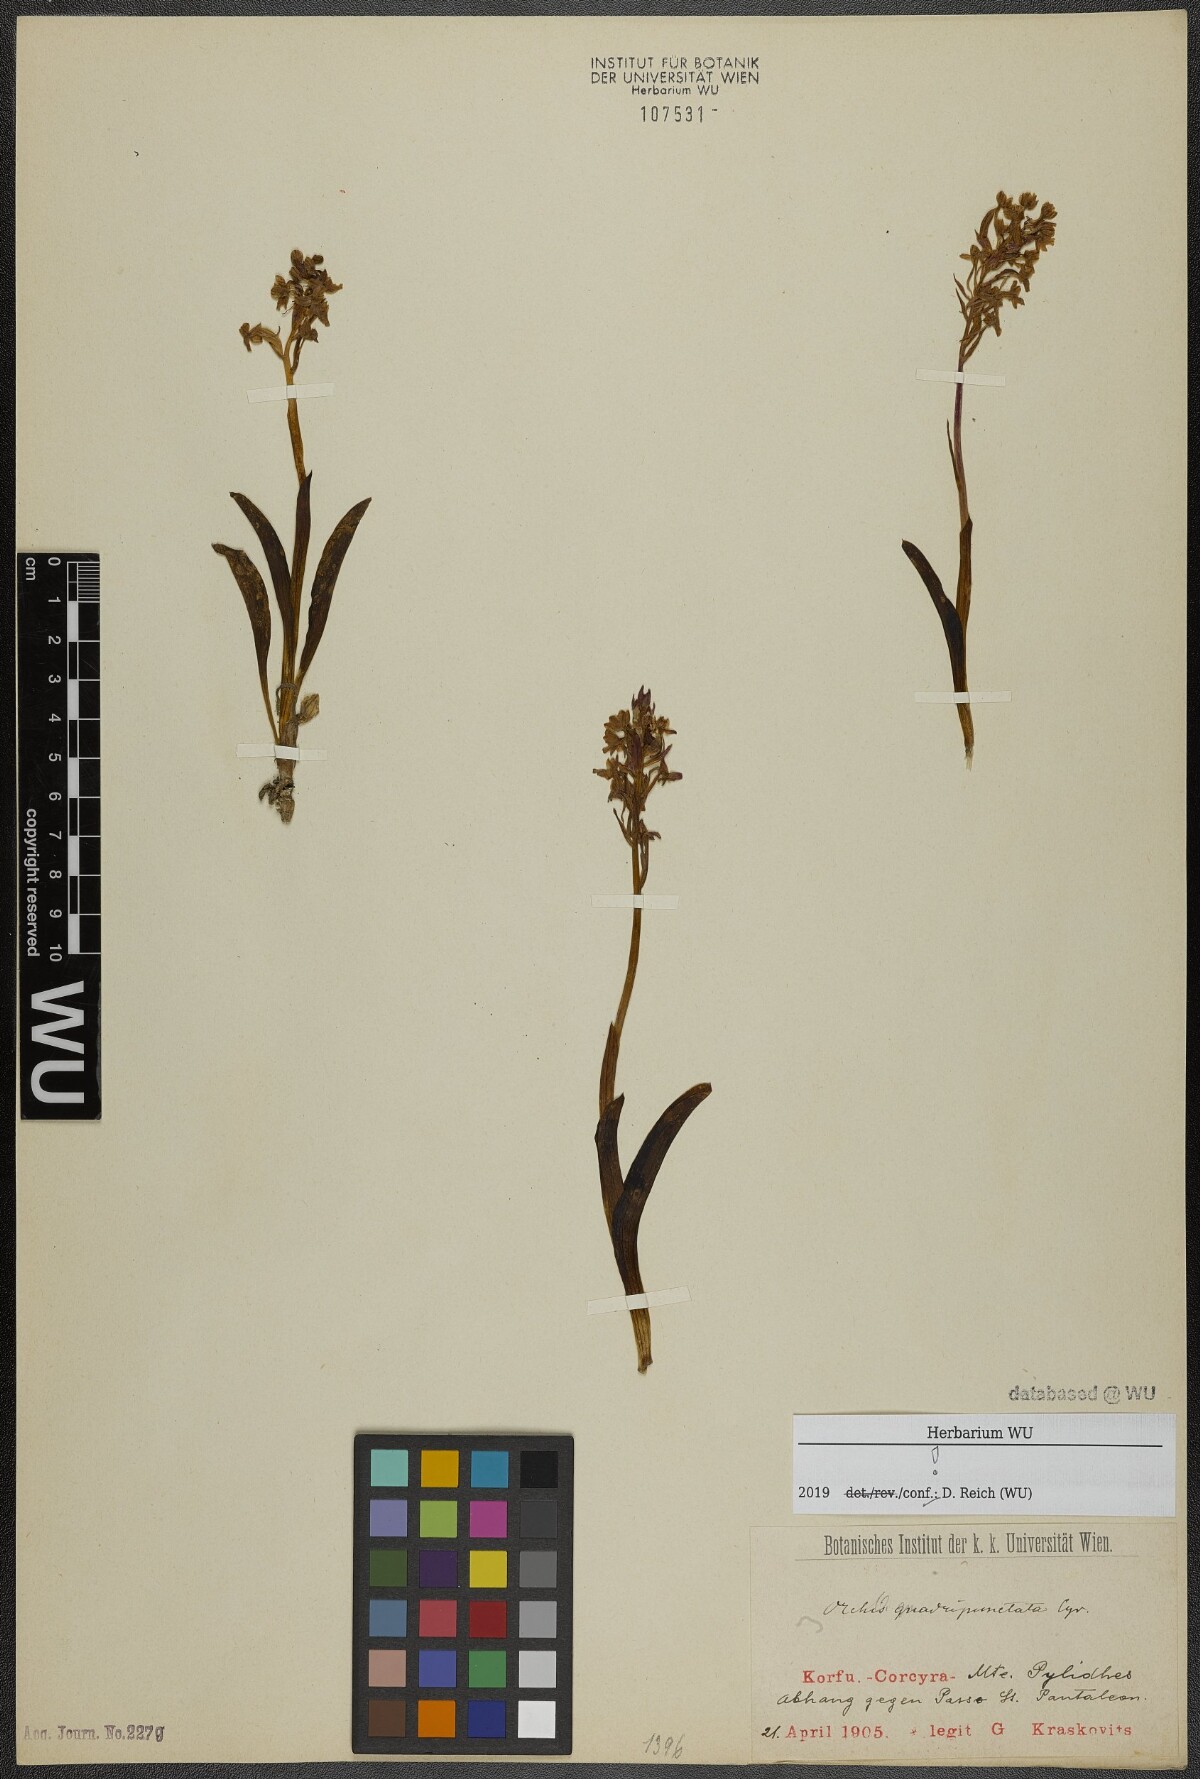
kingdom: Plantae
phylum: Tracheophyta
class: Liliopsida
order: Asparagales
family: Orchidaceae
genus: Orchis
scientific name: Orchis quadripunctata
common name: Four-spotted orchid
